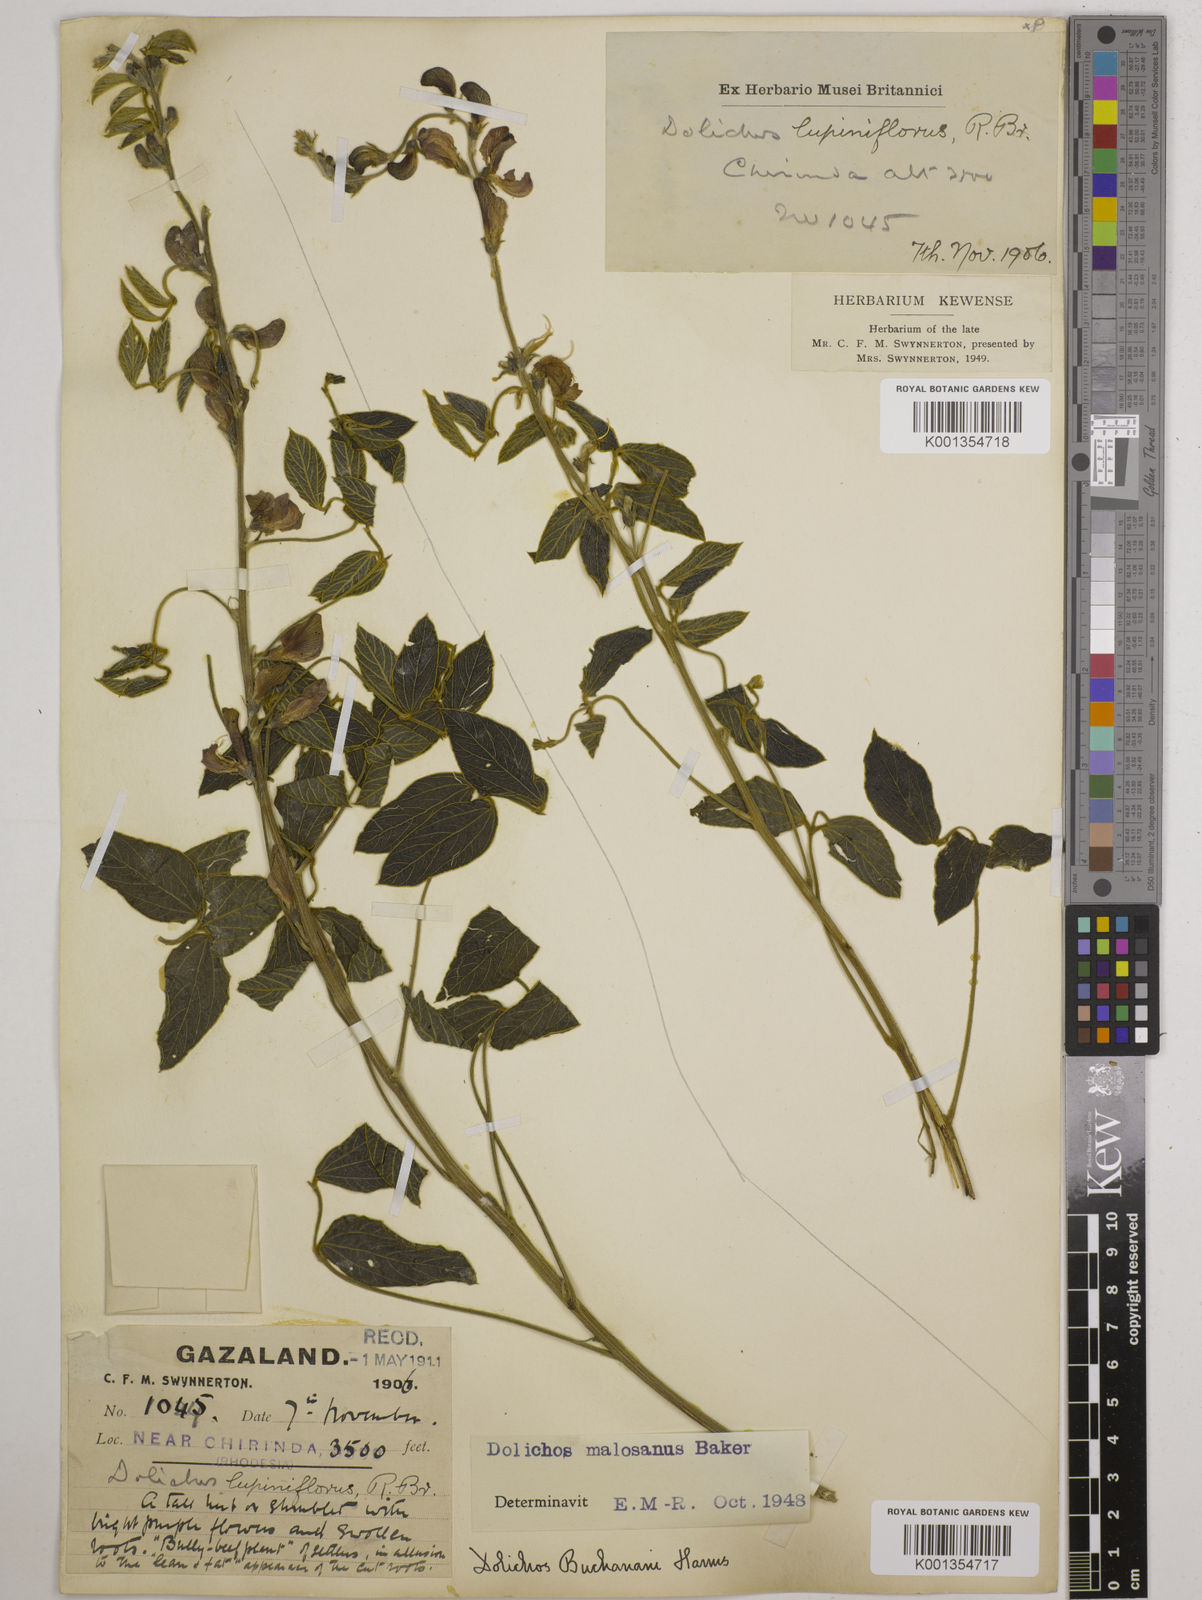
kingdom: Plantae
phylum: Tracheophyta
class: Magnoliopsida
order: Fabales
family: Fabaceae
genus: Dolichos
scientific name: Dolichos kilimandscharicus
